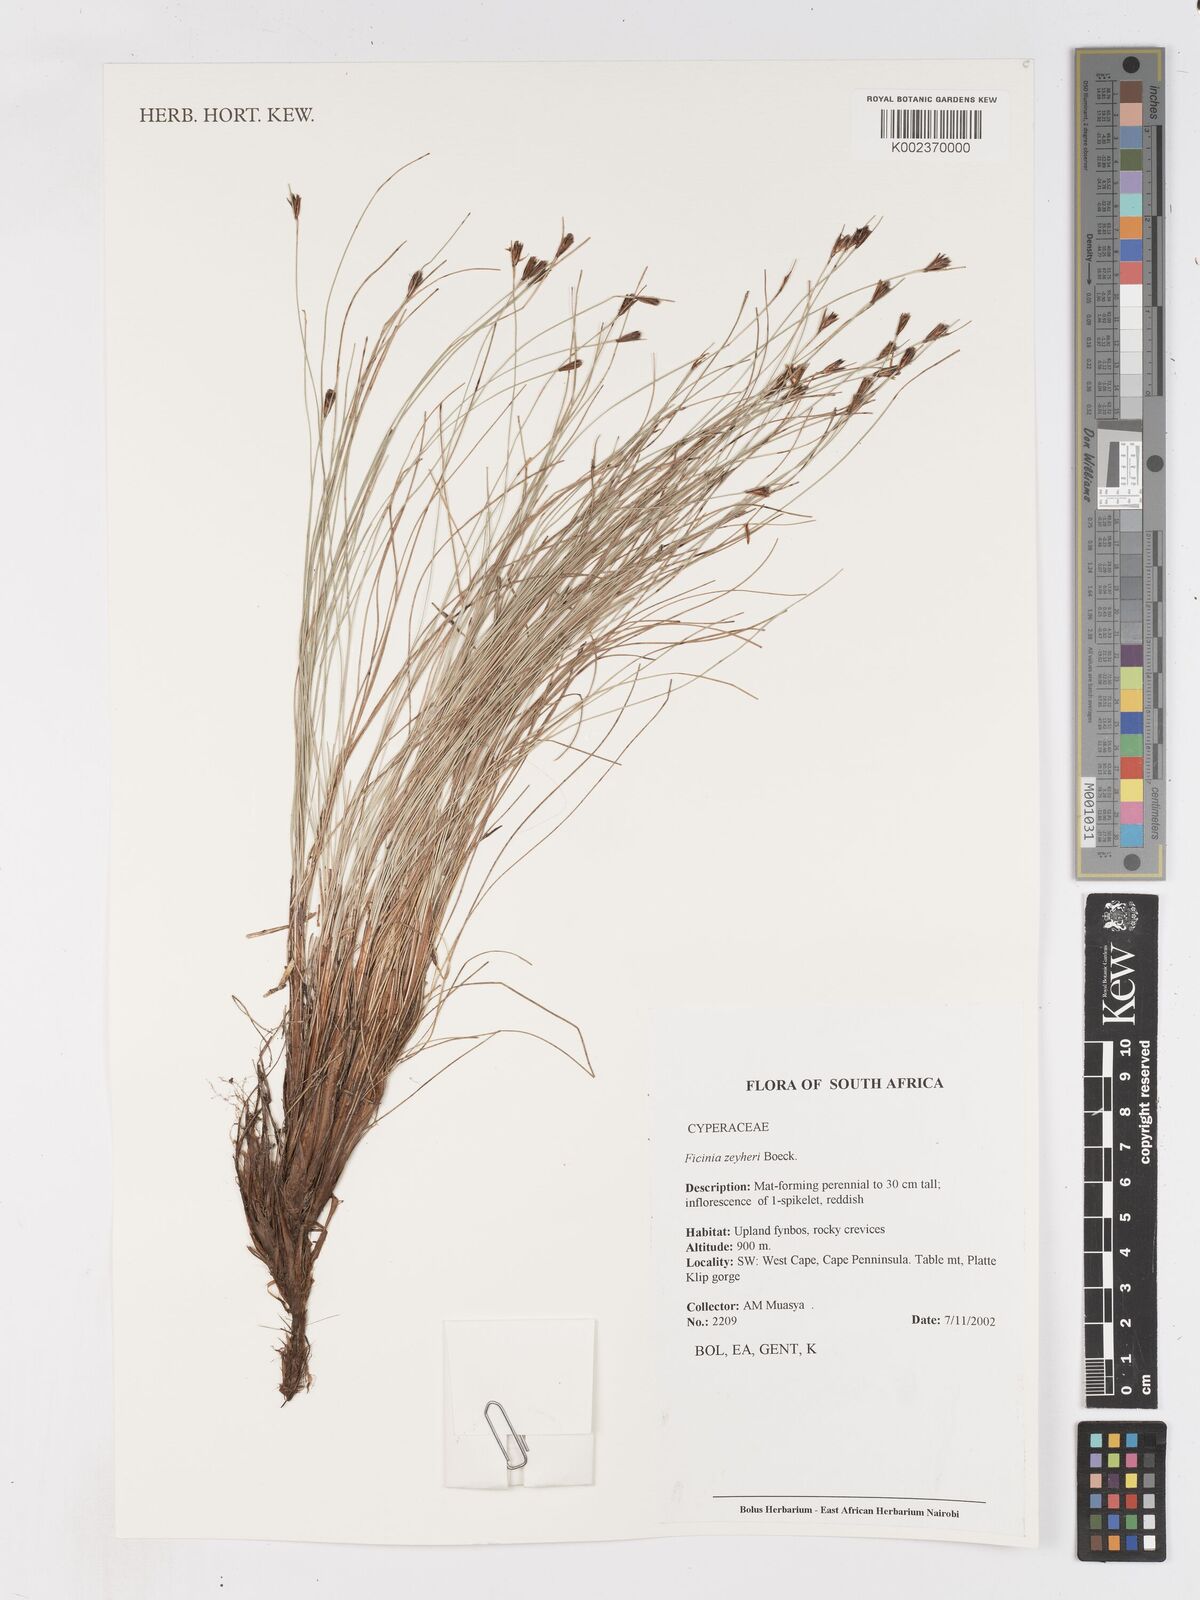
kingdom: Plantae
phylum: Tracheophyta
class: Liliopsida
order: Poales
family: Cyperaceae
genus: Ficinia
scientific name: Ficinia zeyheri
